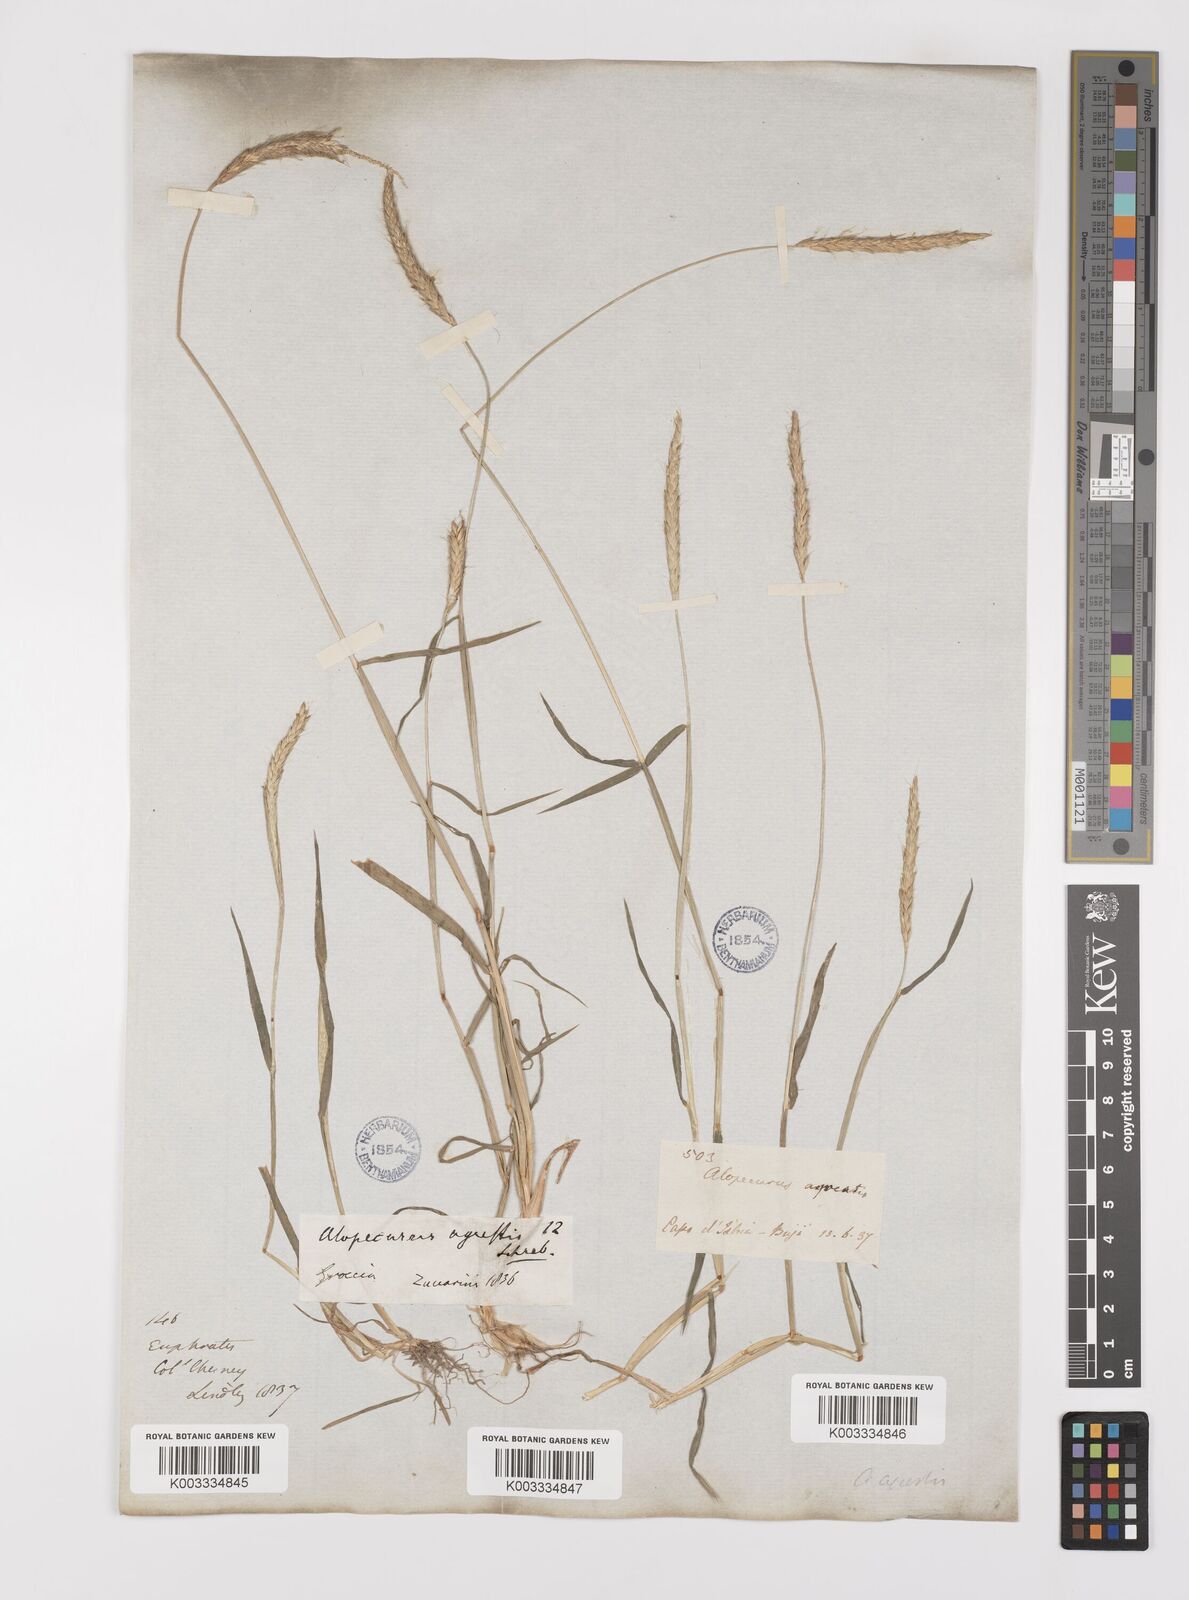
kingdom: Plantae
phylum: Tracheophyta
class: Liliopsida
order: Poales
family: Poaceae
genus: Alopecurus
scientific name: Alopecurus myosuroides
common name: Black-grass
